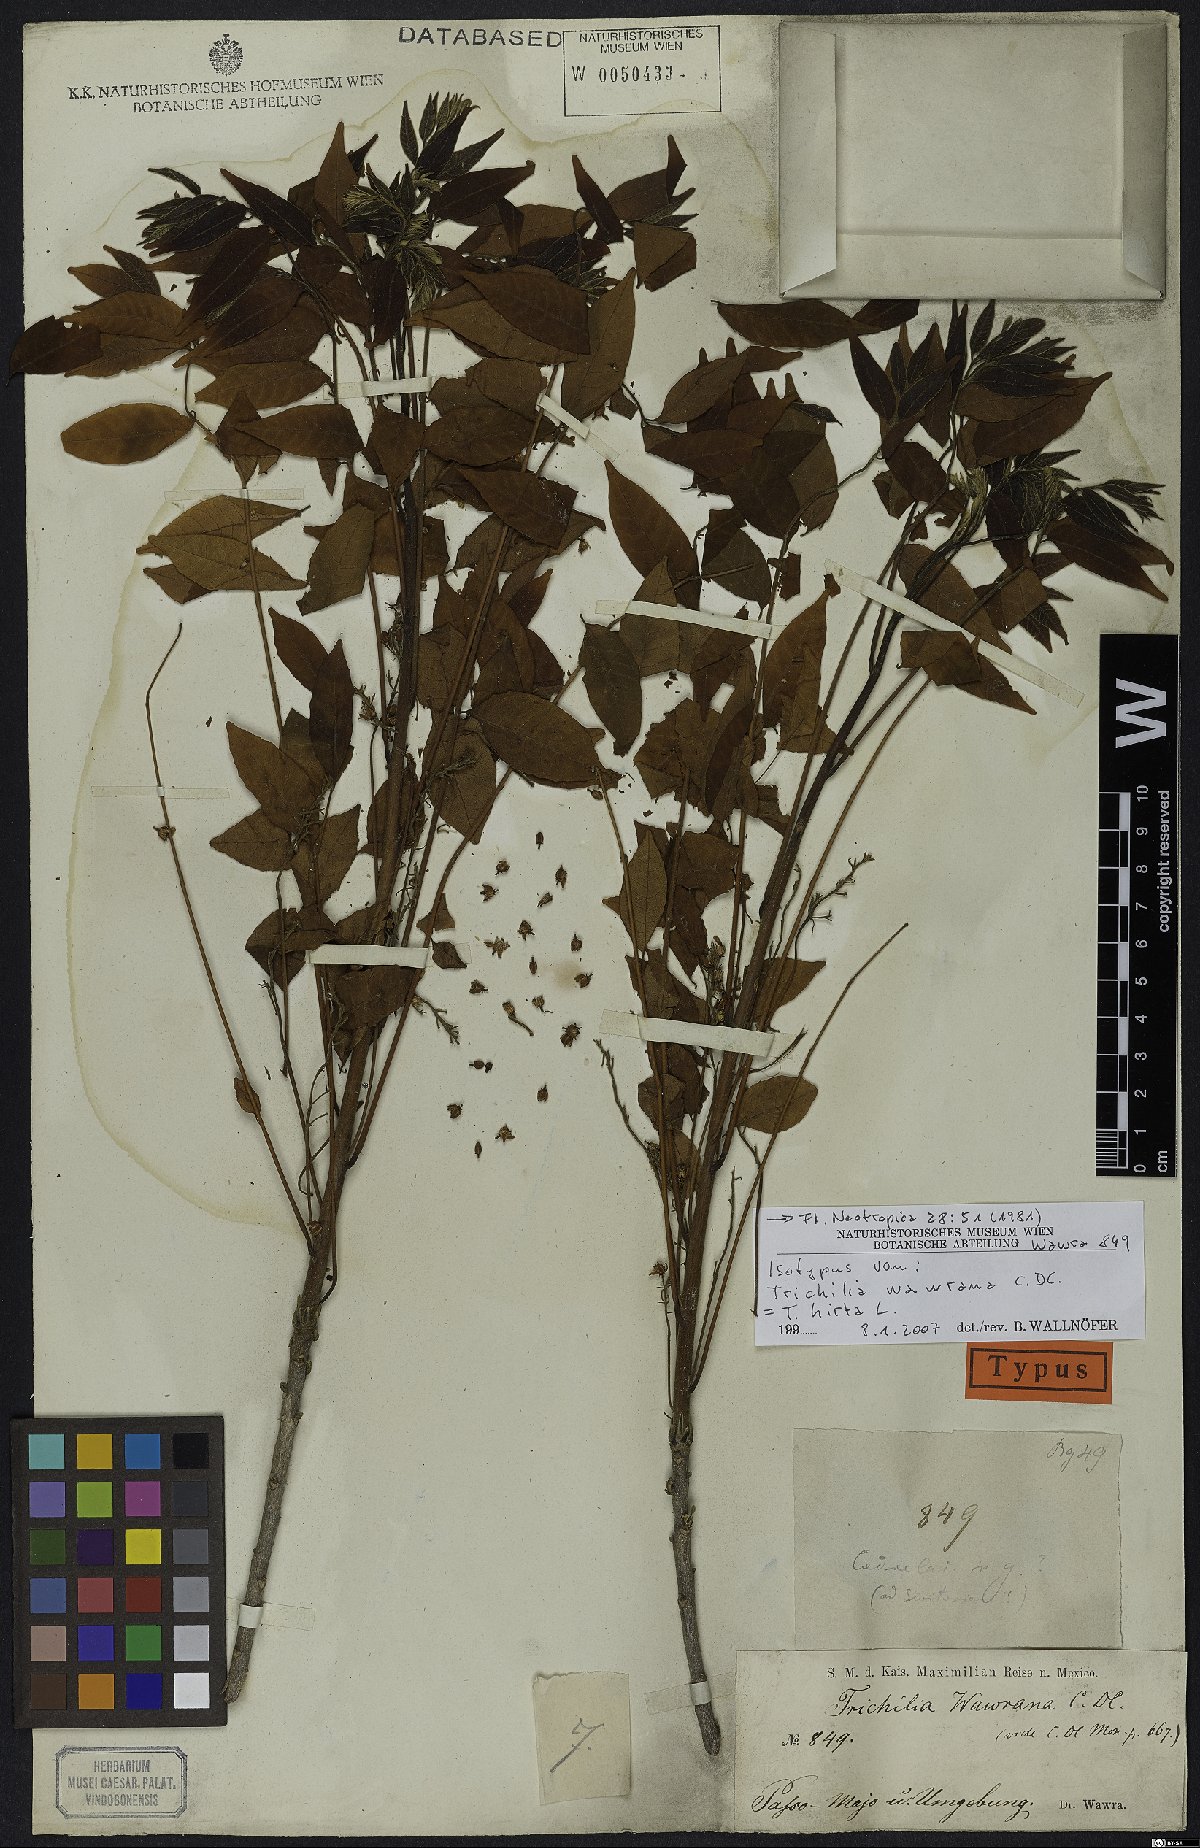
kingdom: Plantae
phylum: Tracheophyta
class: Magnoliopsida
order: Sapindales
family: Meliaceae
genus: Trichilia
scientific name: Trichilia hirta
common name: Red-cedar
